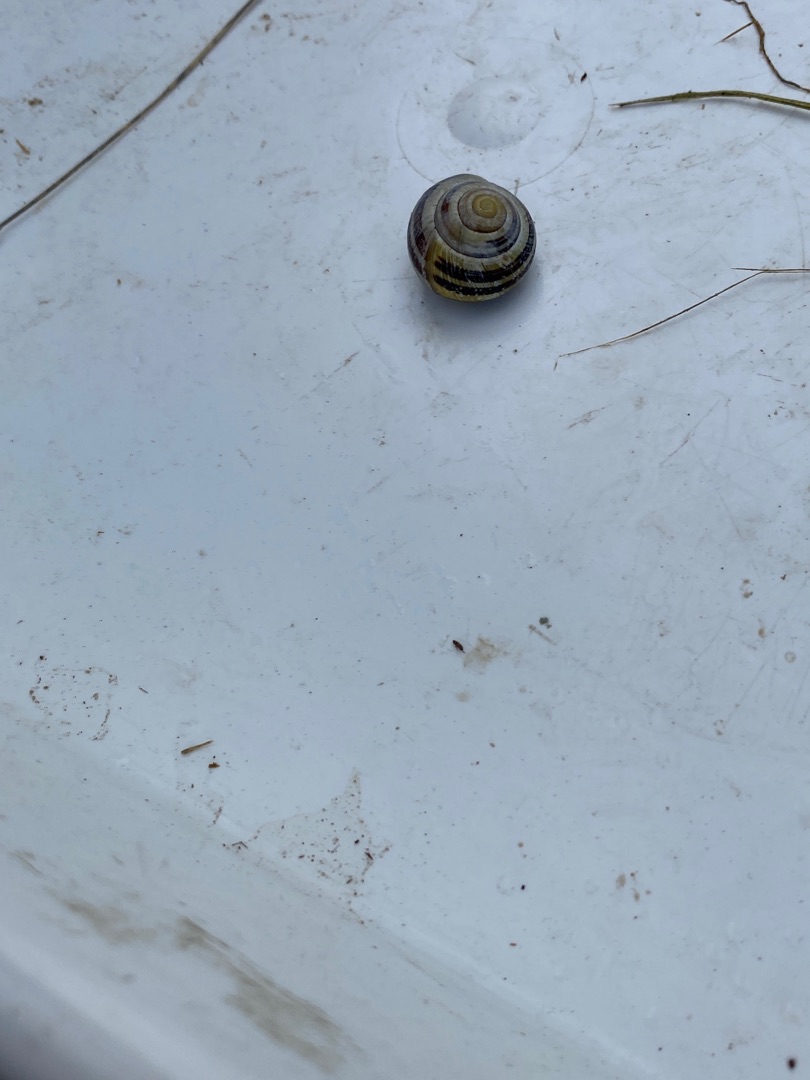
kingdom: Animalia
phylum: Mollusca
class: Gastropoda
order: Stylommatophora
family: Helicidae
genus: Cepaea
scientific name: Cepaea nemoralis
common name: Lundsnegl
